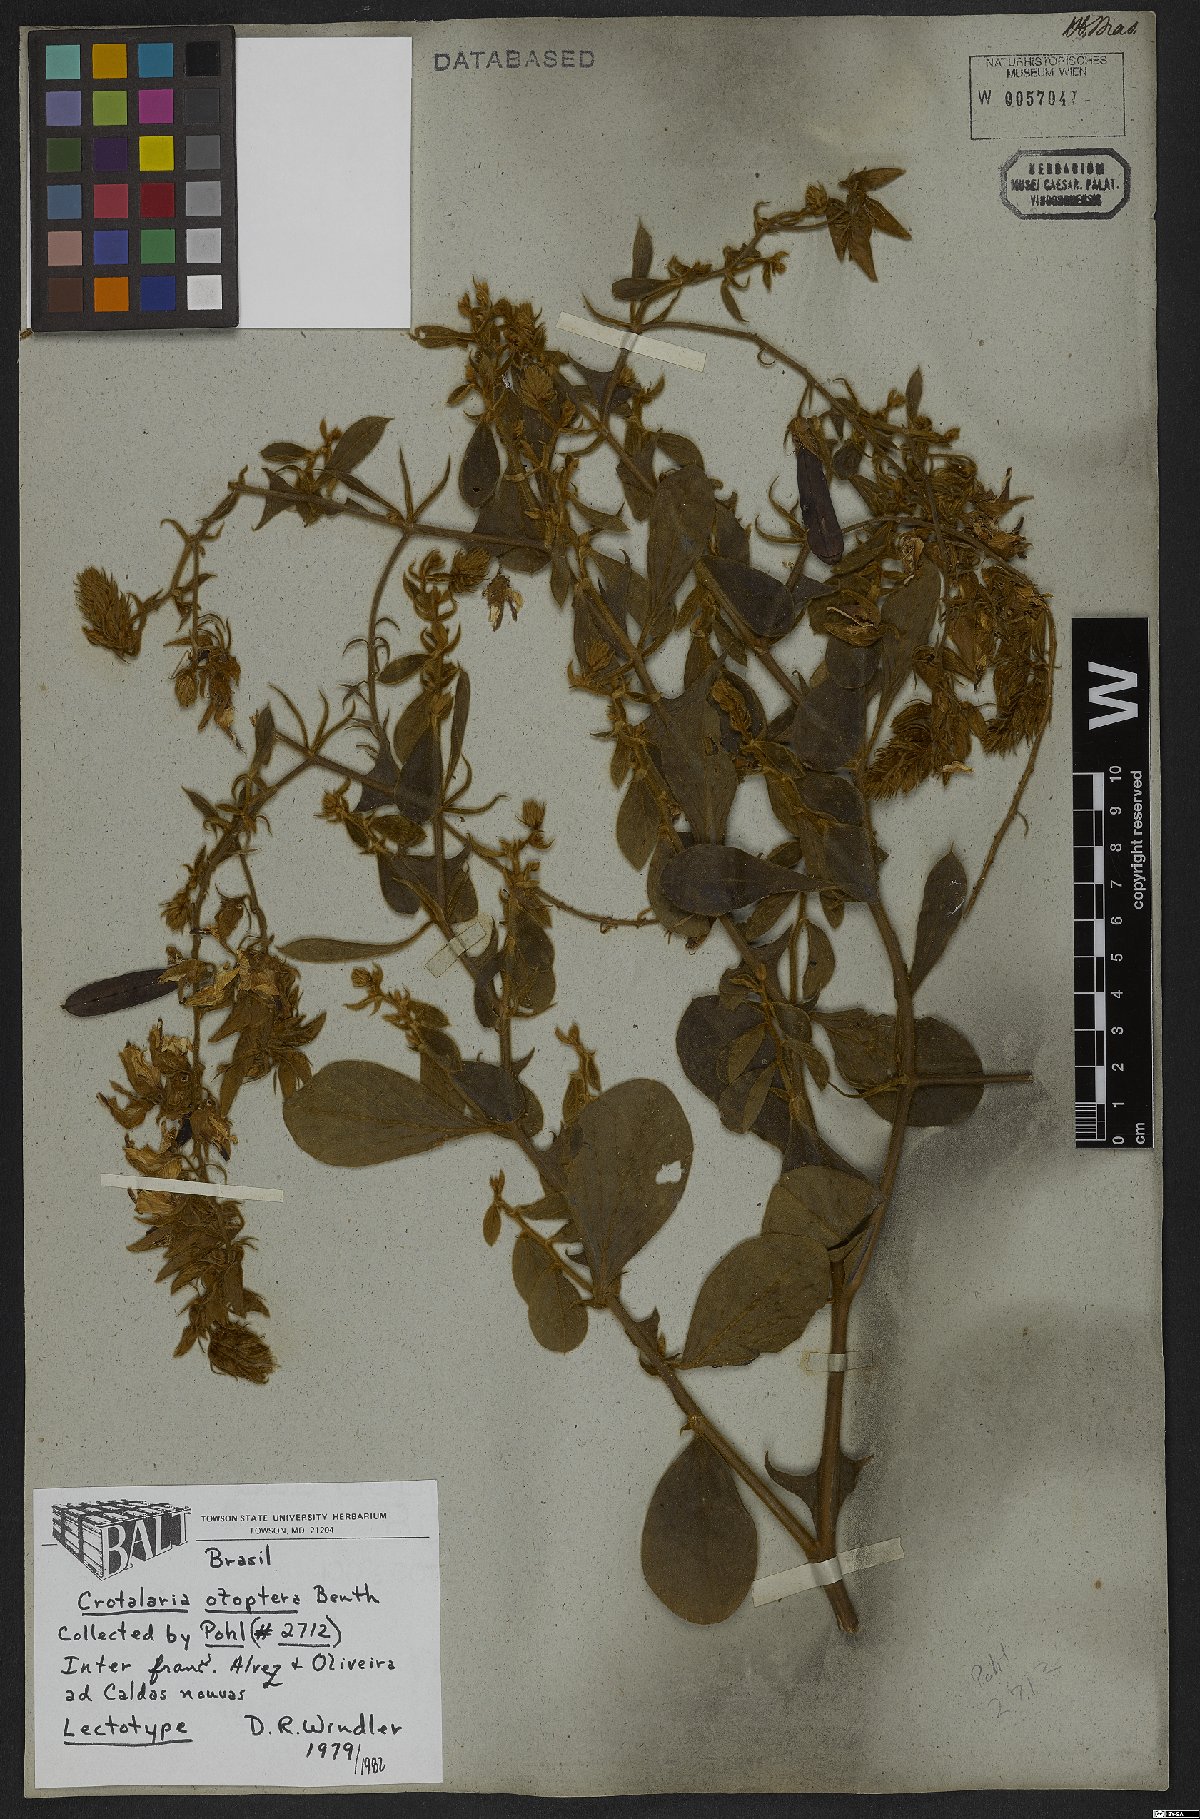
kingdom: Plantae
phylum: Tracheophyta
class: Magnoliopsida
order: Fabales
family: Fabaceae
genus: Crotalaria
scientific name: Crotalaria otoptera
